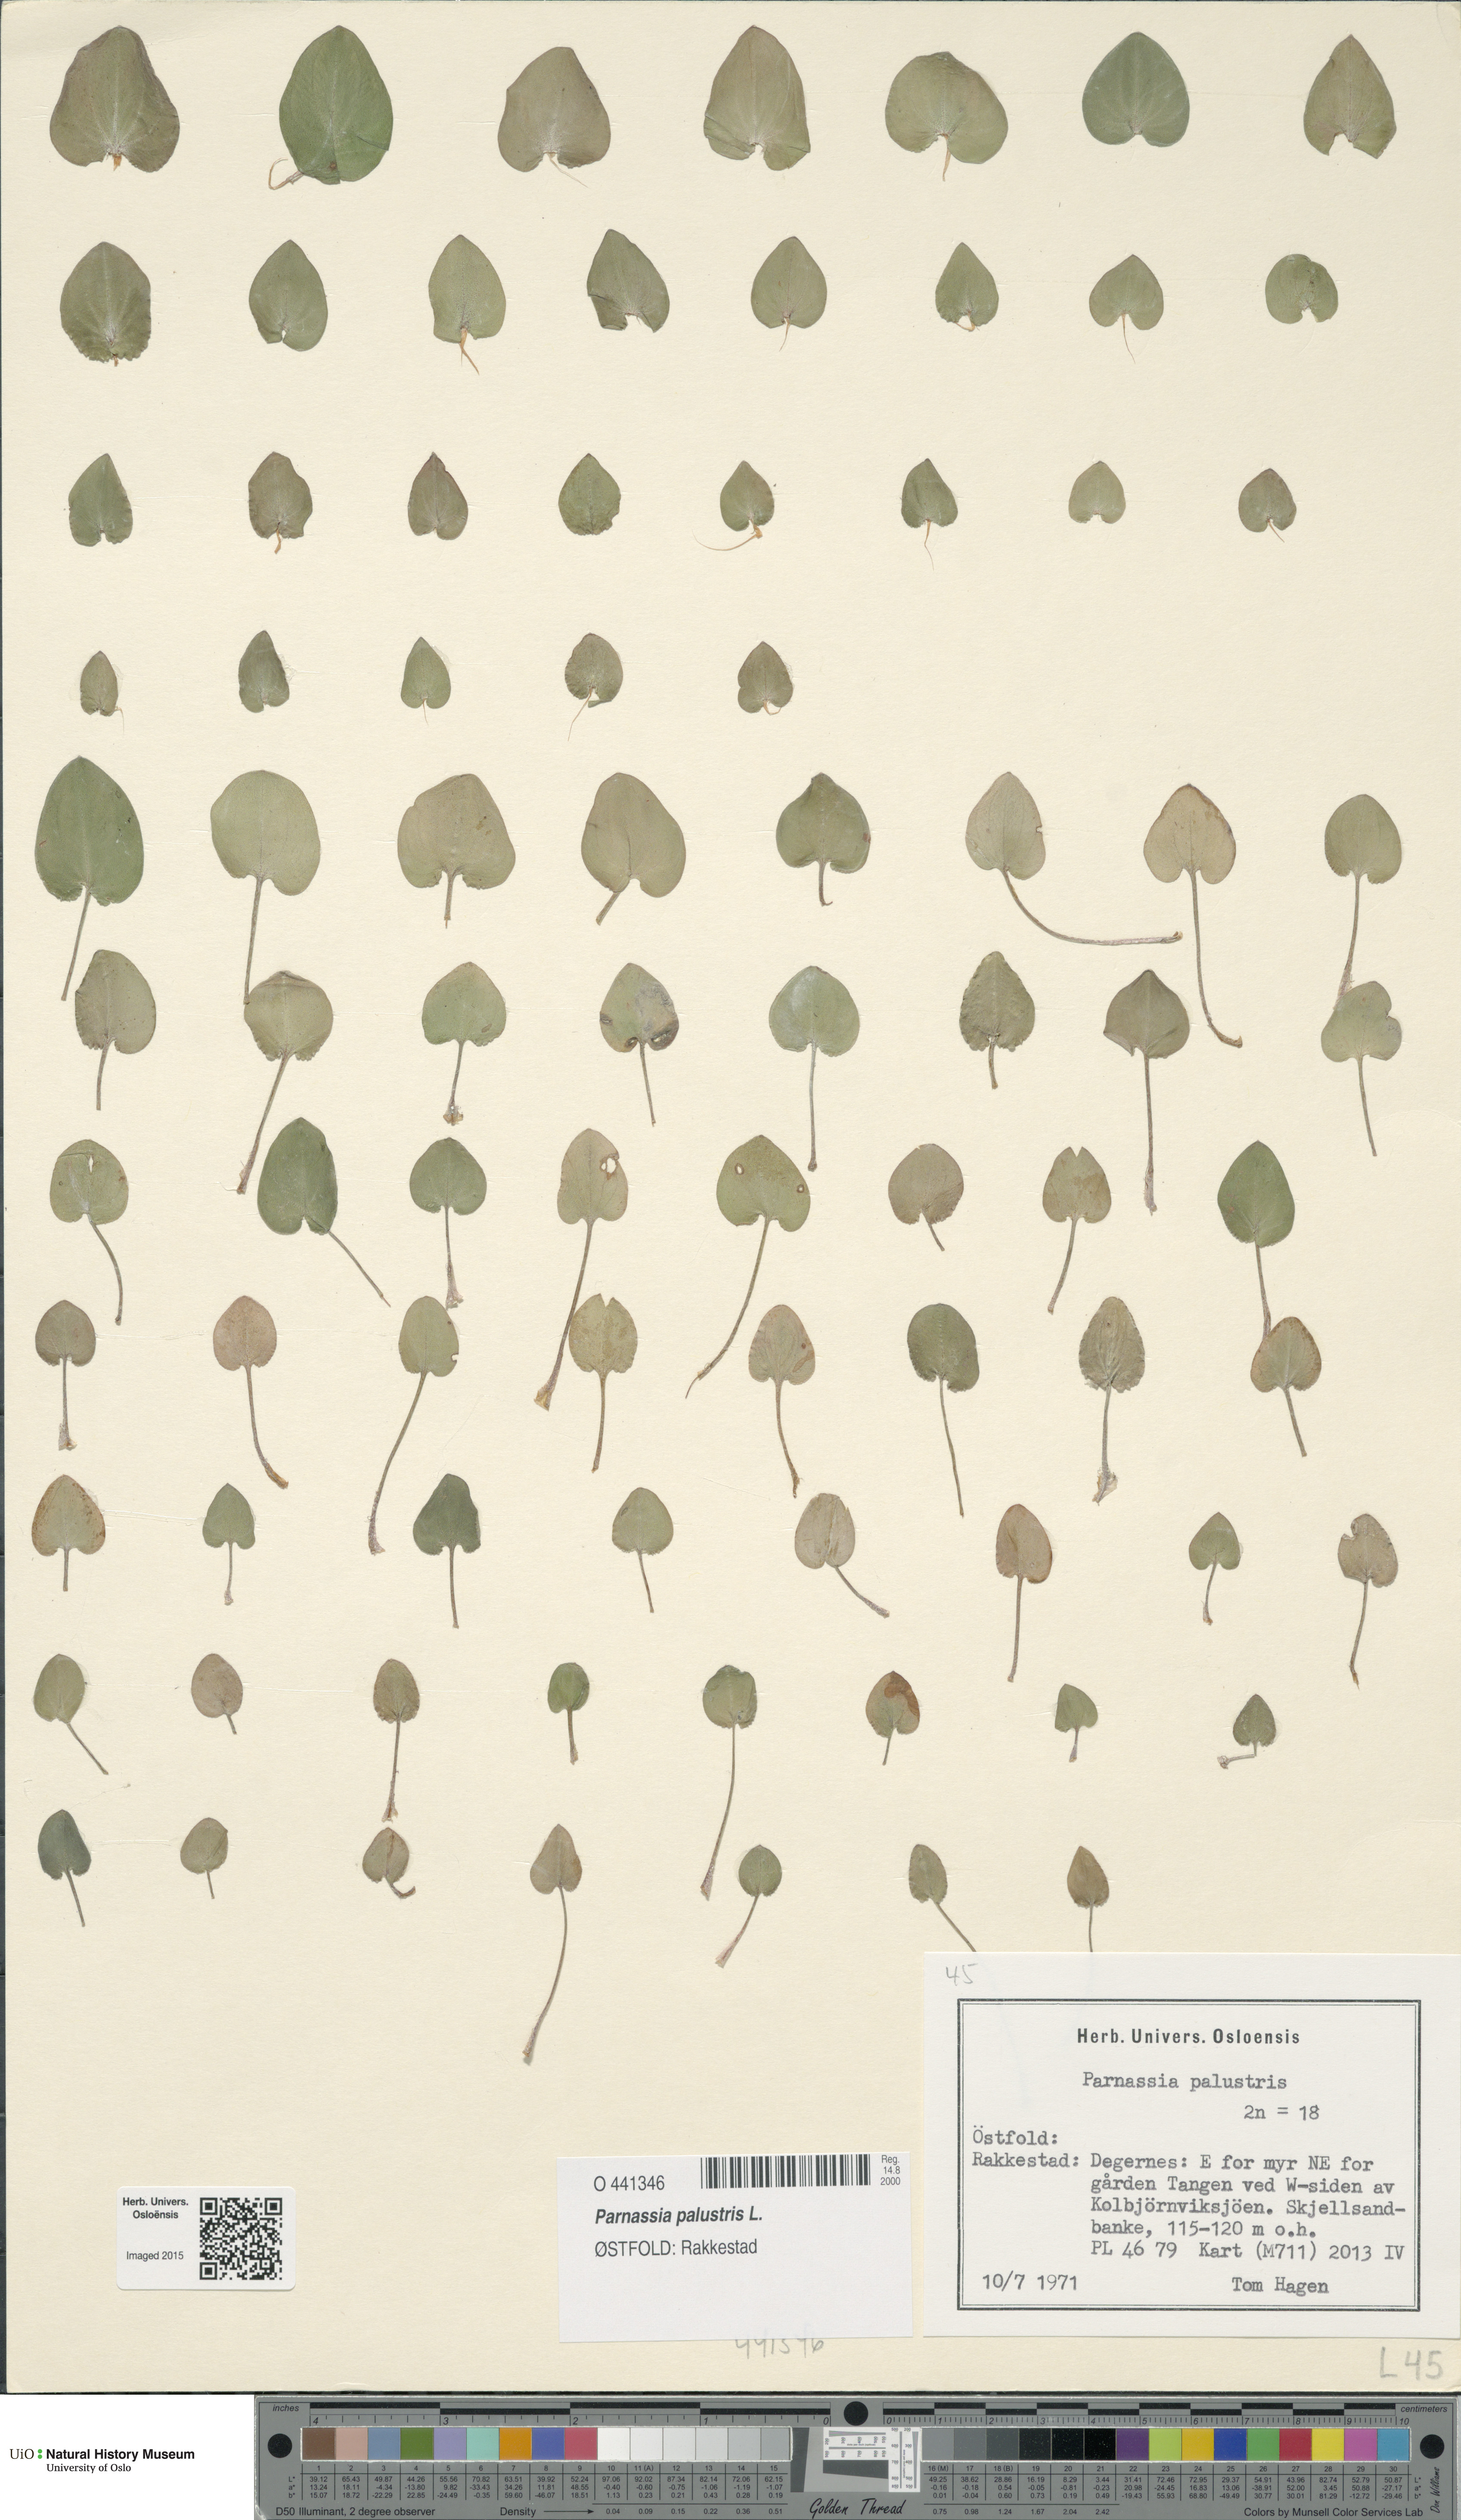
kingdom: Plantae
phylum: Tracheophyta
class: Magnoliopsida
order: Celastrales
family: Parnassiaceae
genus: Parnassia
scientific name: Parnassia palustris
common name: Grass-of-parnassus
